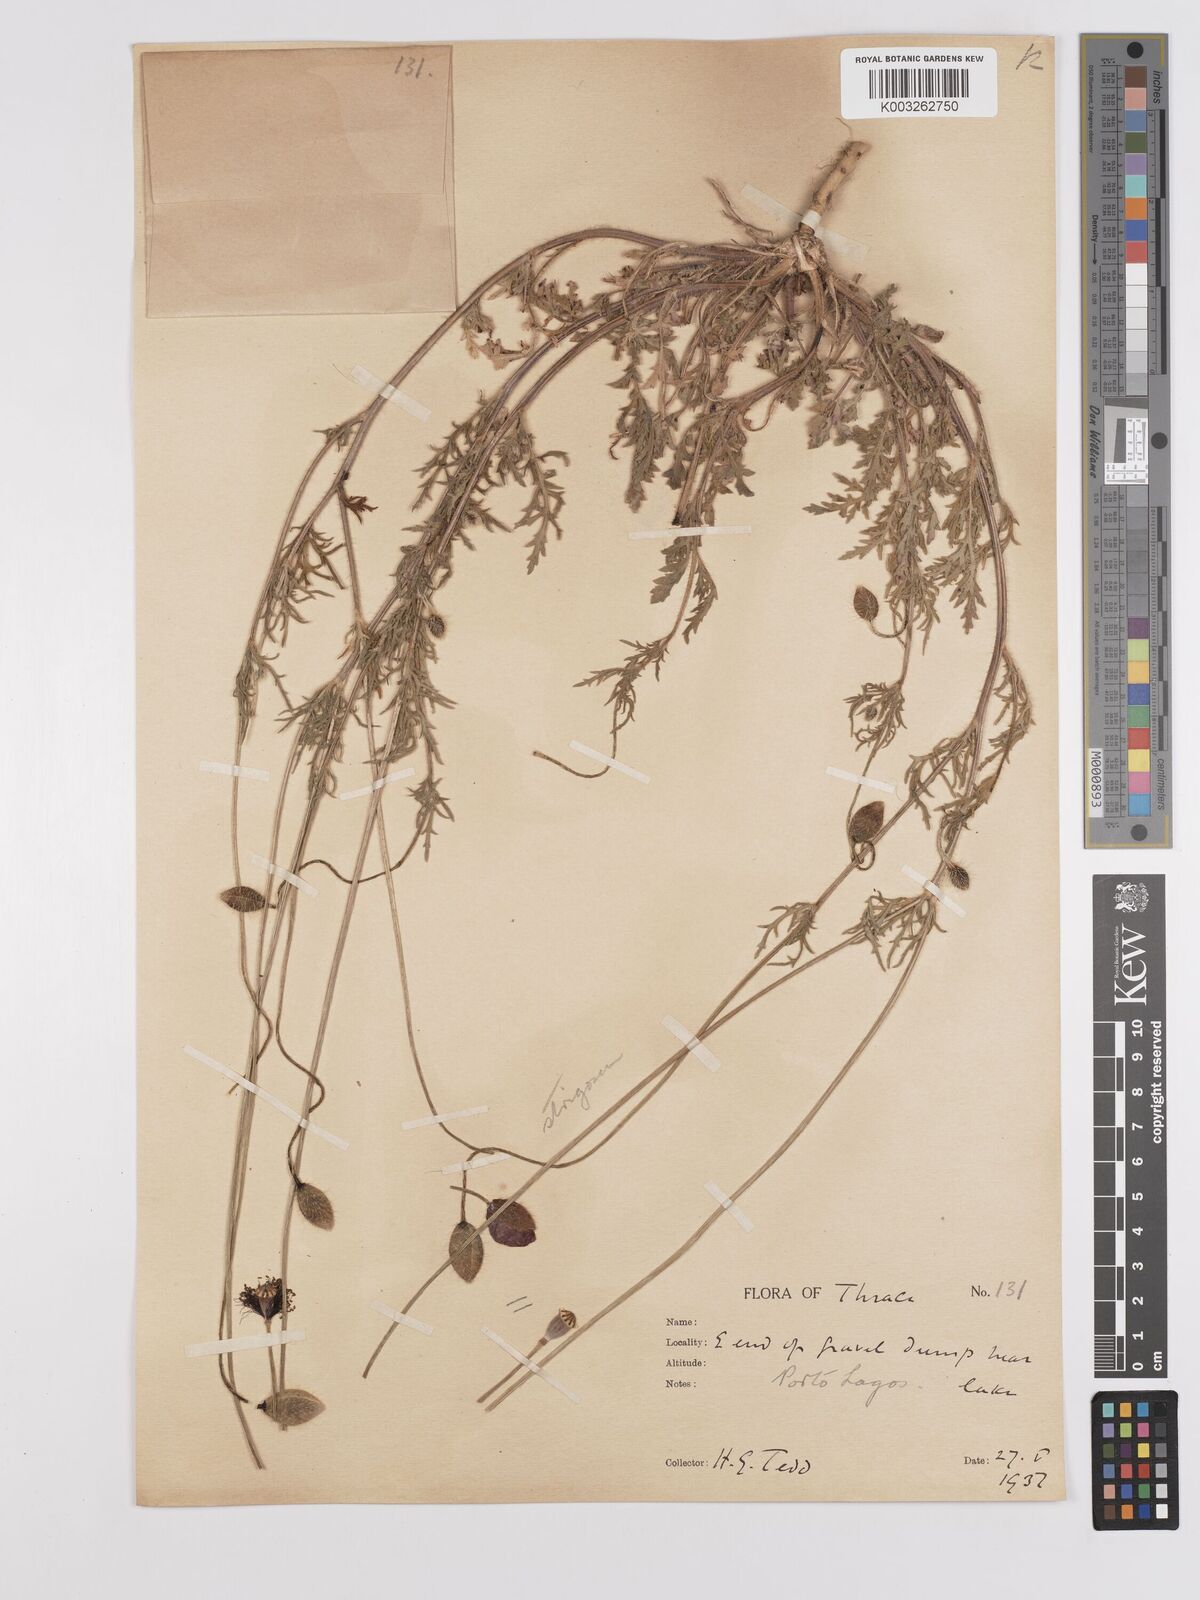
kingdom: Plantae
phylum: Tracheophyta
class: Magnoliopsida
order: Ranunculales
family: Papaveraceae
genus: Papaver
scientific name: Papaver
